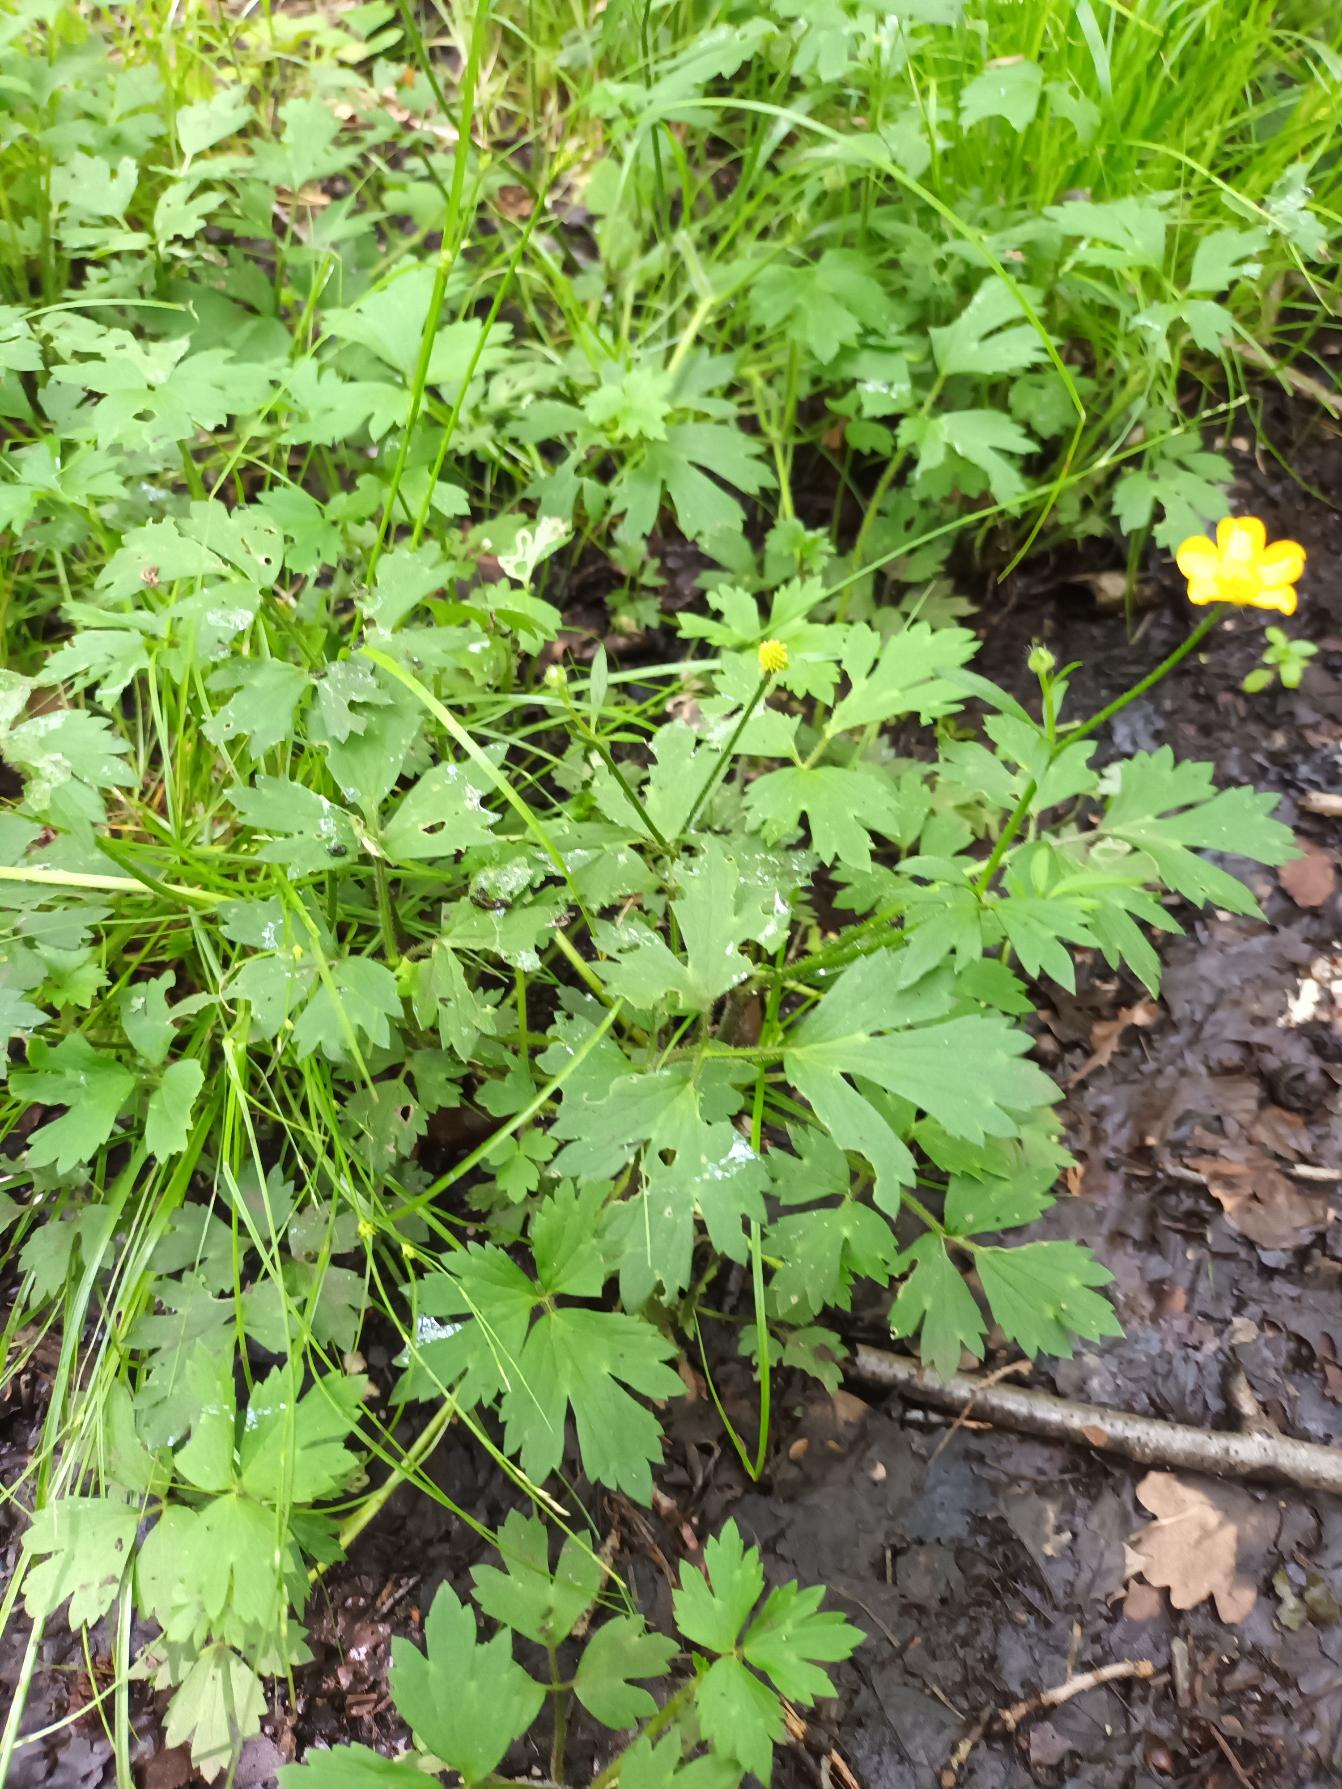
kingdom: Plantae
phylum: Tracheophyta
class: Magnoliopsida
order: Ranunculales
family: Ranunculaceae
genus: Ranunculus
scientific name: Ranunculus repens
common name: Lav ranunkel
